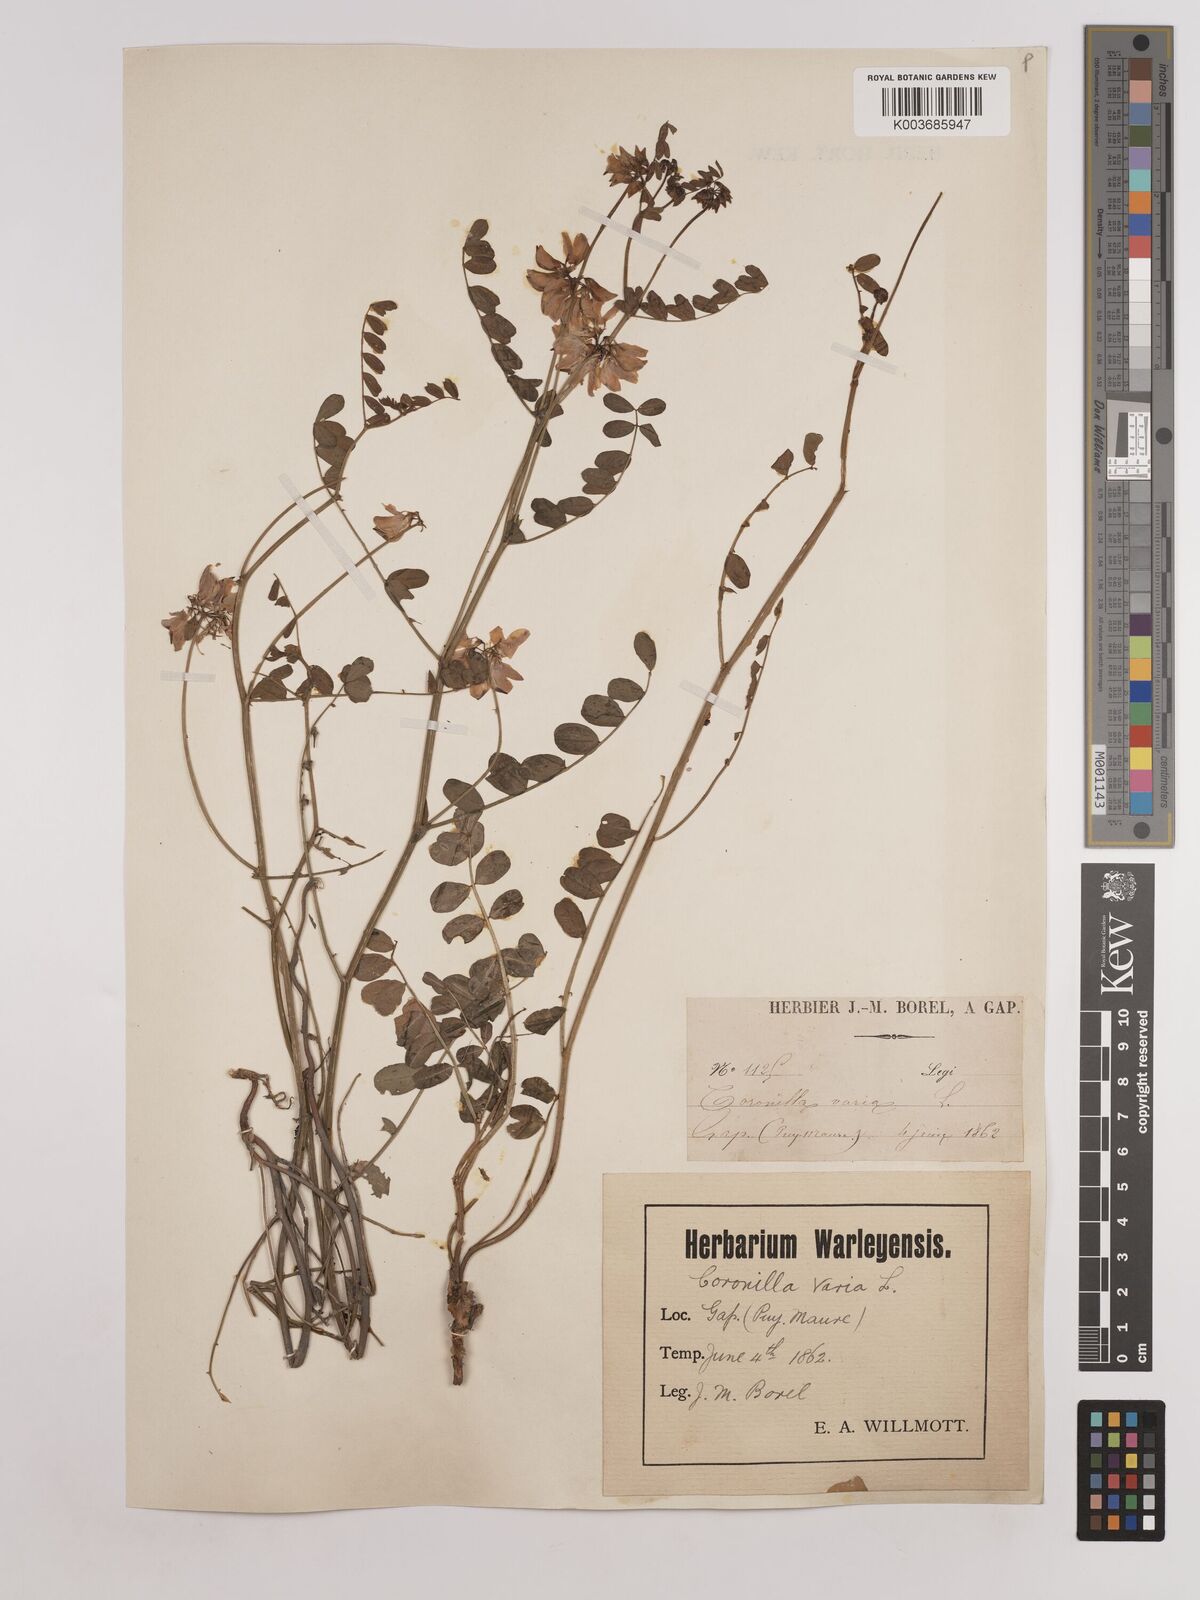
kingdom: Plantae
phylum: Tracheophyta
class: Magnoliopsida
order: Fabales
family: Fabaceae
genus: Coronilla
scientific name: Coronilla varia
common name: Crownvetch
